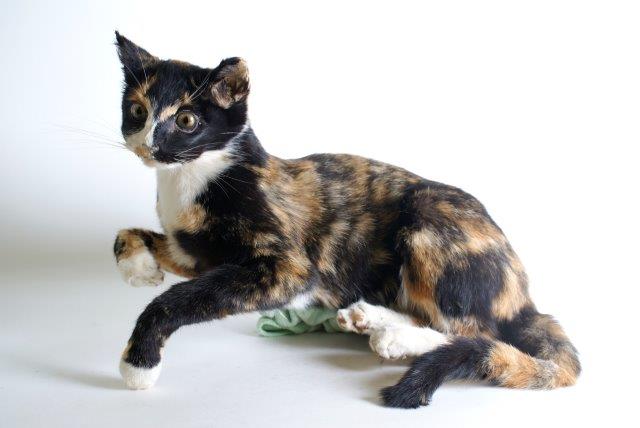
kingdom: Animalia
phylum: Chordata
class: Mammalia
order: Carnivora
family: Felidae
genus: Felis
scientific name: Felis catus
